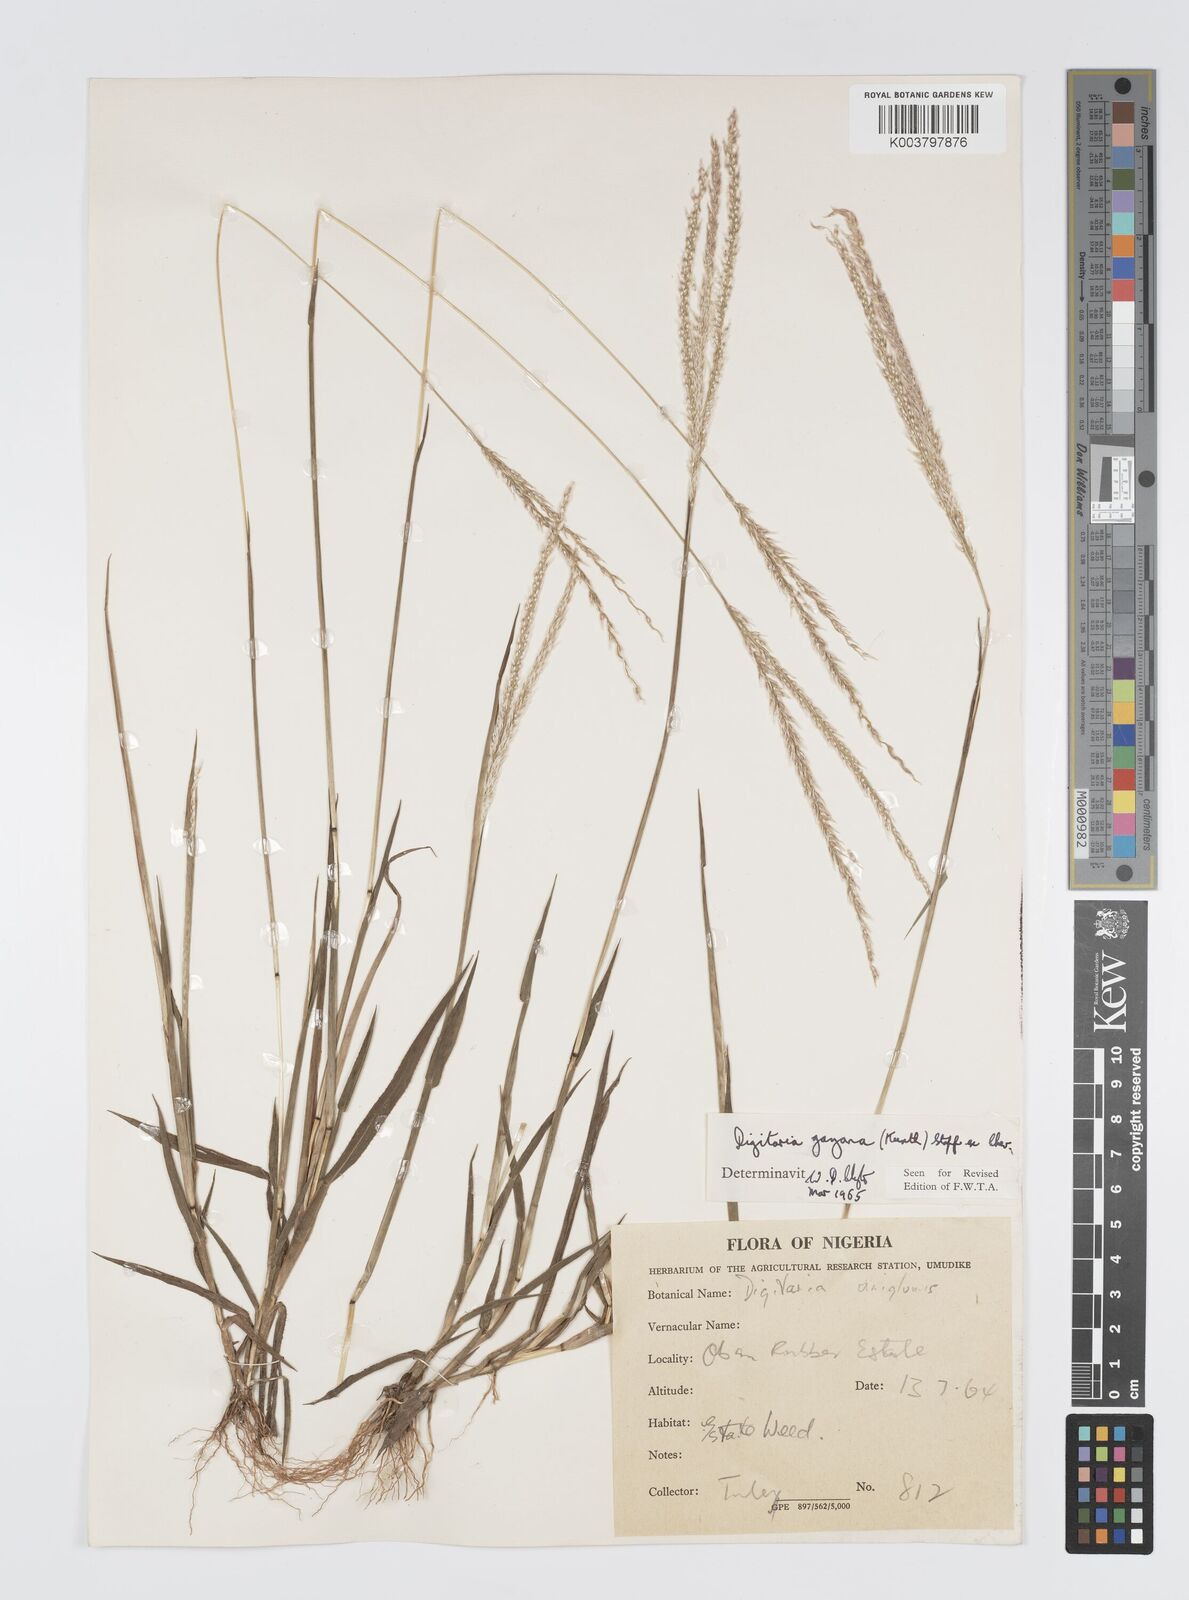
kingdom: Plantae
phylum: Tracheophyta
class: Liliopsida
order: Poales
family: Poaceae
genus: Digitaria
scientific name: Digitaria gayana
